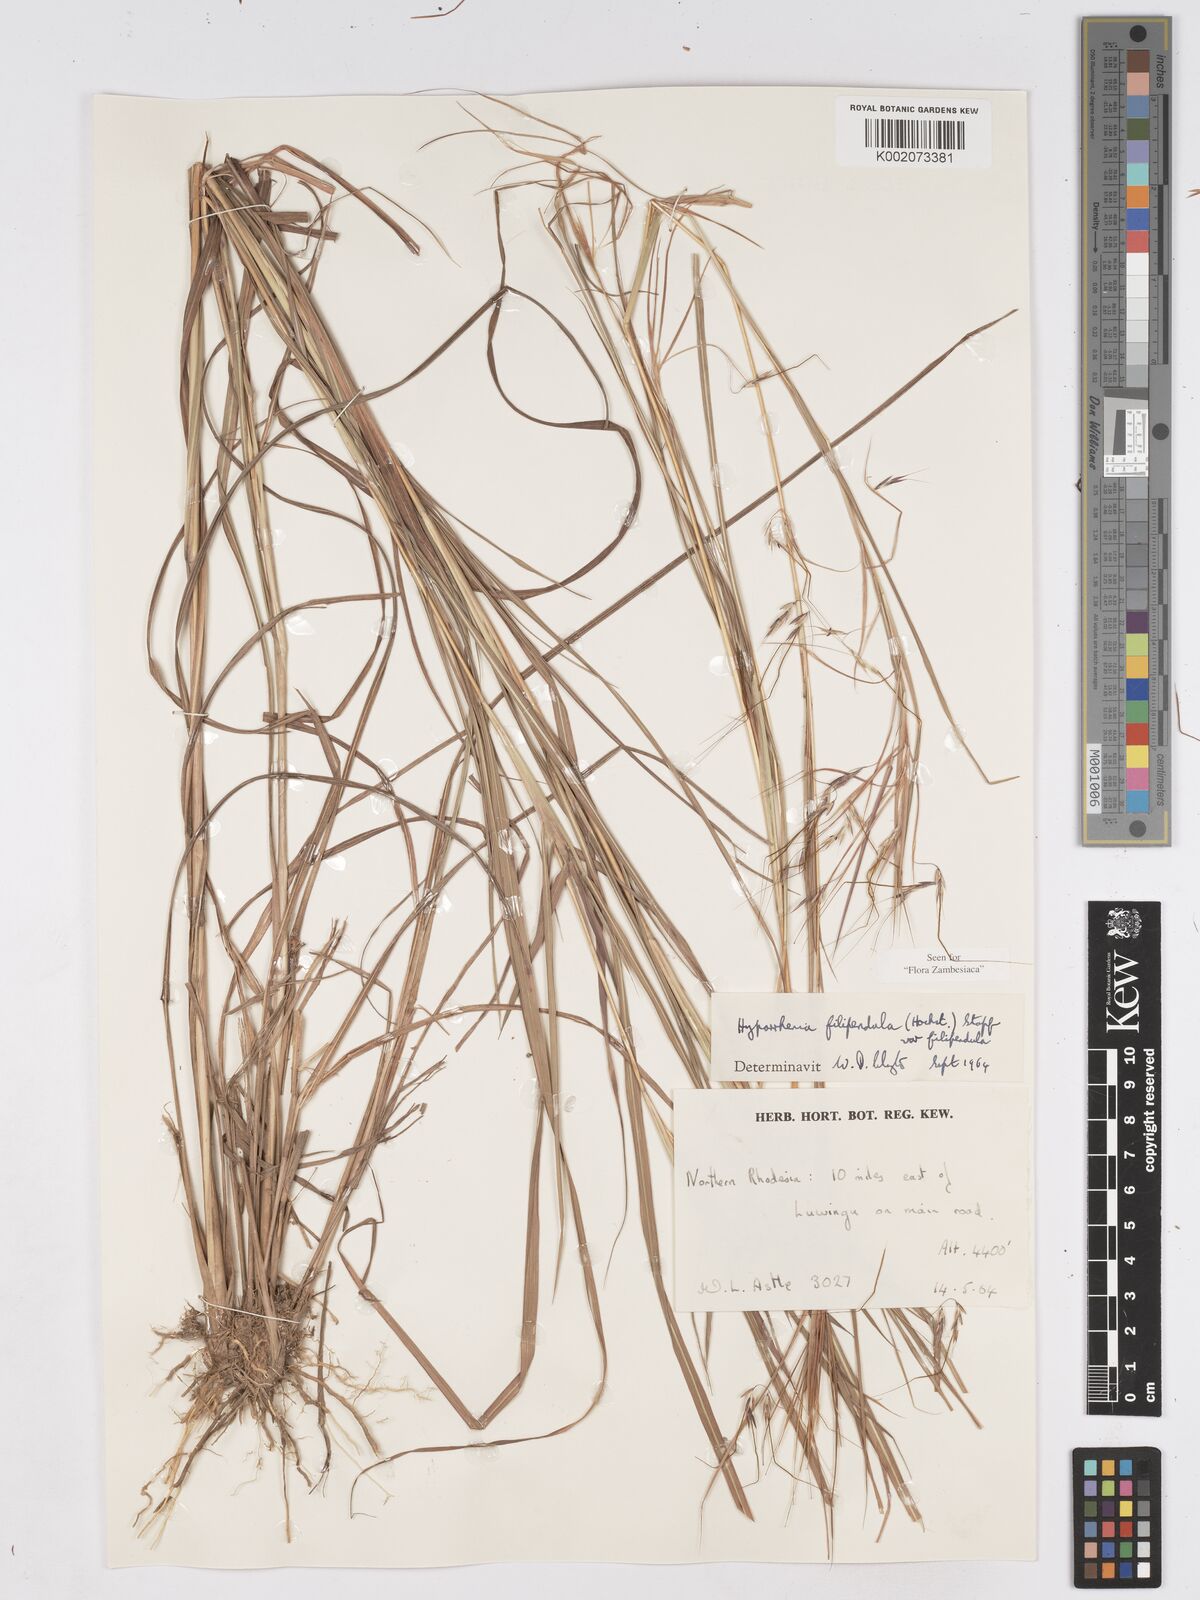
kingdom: Plantae
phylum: Tracheophyta
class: Liliopsida
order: Poales
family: Poaceae
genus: Hyparrhenia
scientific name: Hyparrhenia filipendula
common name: Tambookie grass
